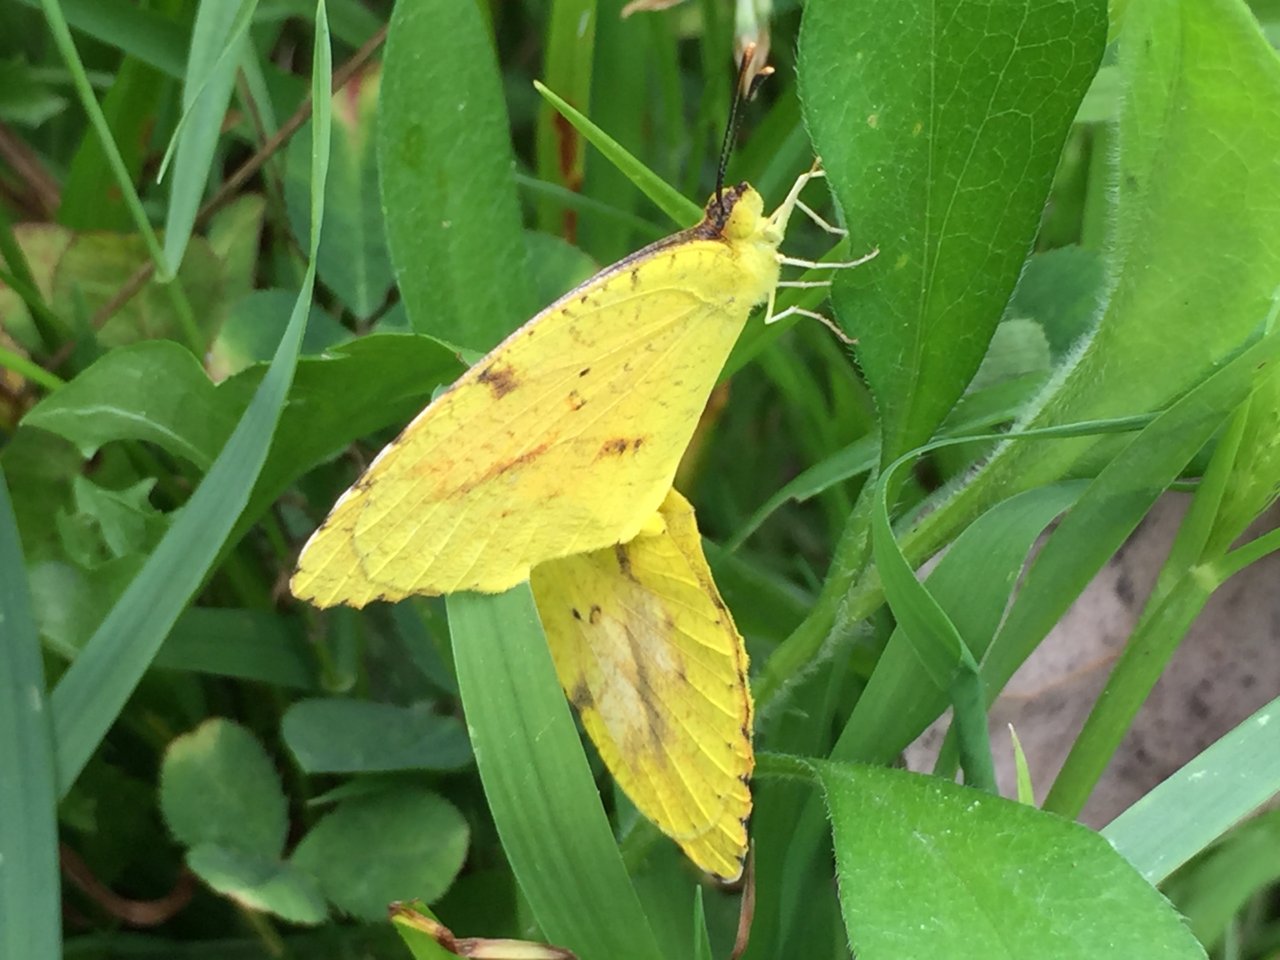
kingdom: Animalia
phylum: Arthropoda
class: Insecta
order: Lepidoptera
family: Pieridae
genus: Abaeis
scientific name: Abaeis nicippe
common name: Sleepy Orange
